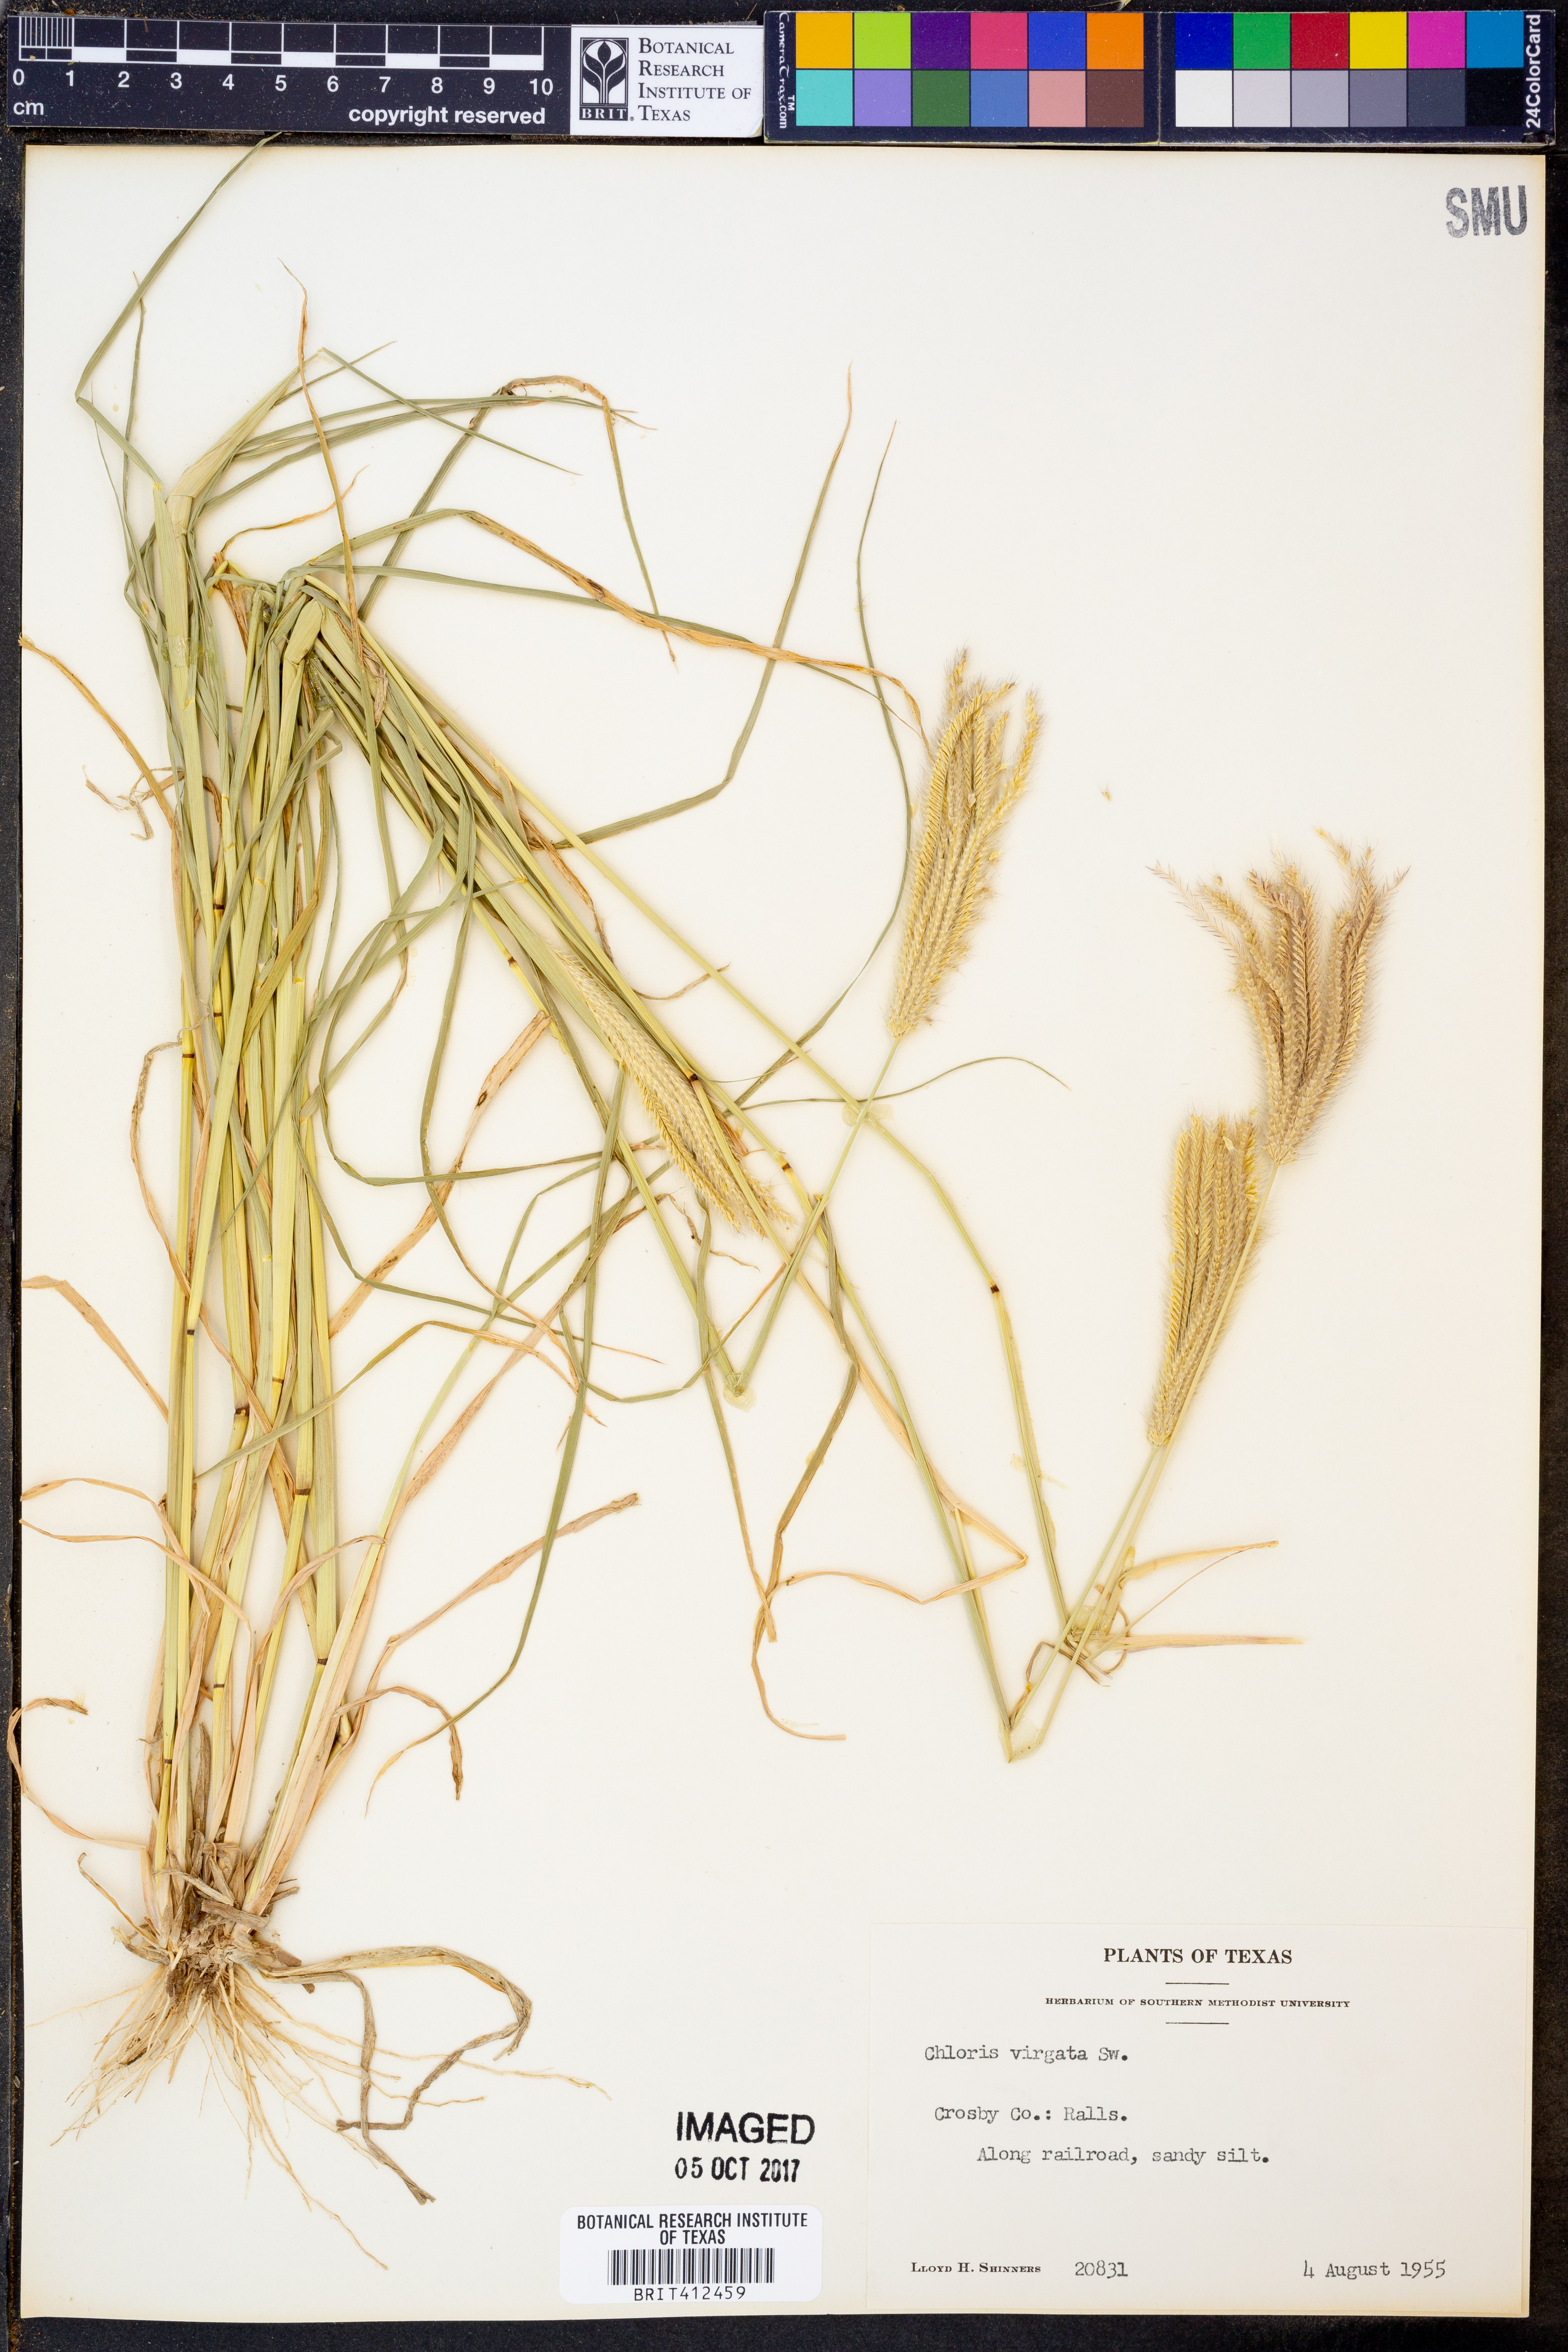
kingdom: Plantae
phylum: Tracheophyta
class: Liliopsida
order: Poales
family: Poaceae
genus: Chloris
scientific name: Chloris virgata
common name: Feathery rhodes-grass
